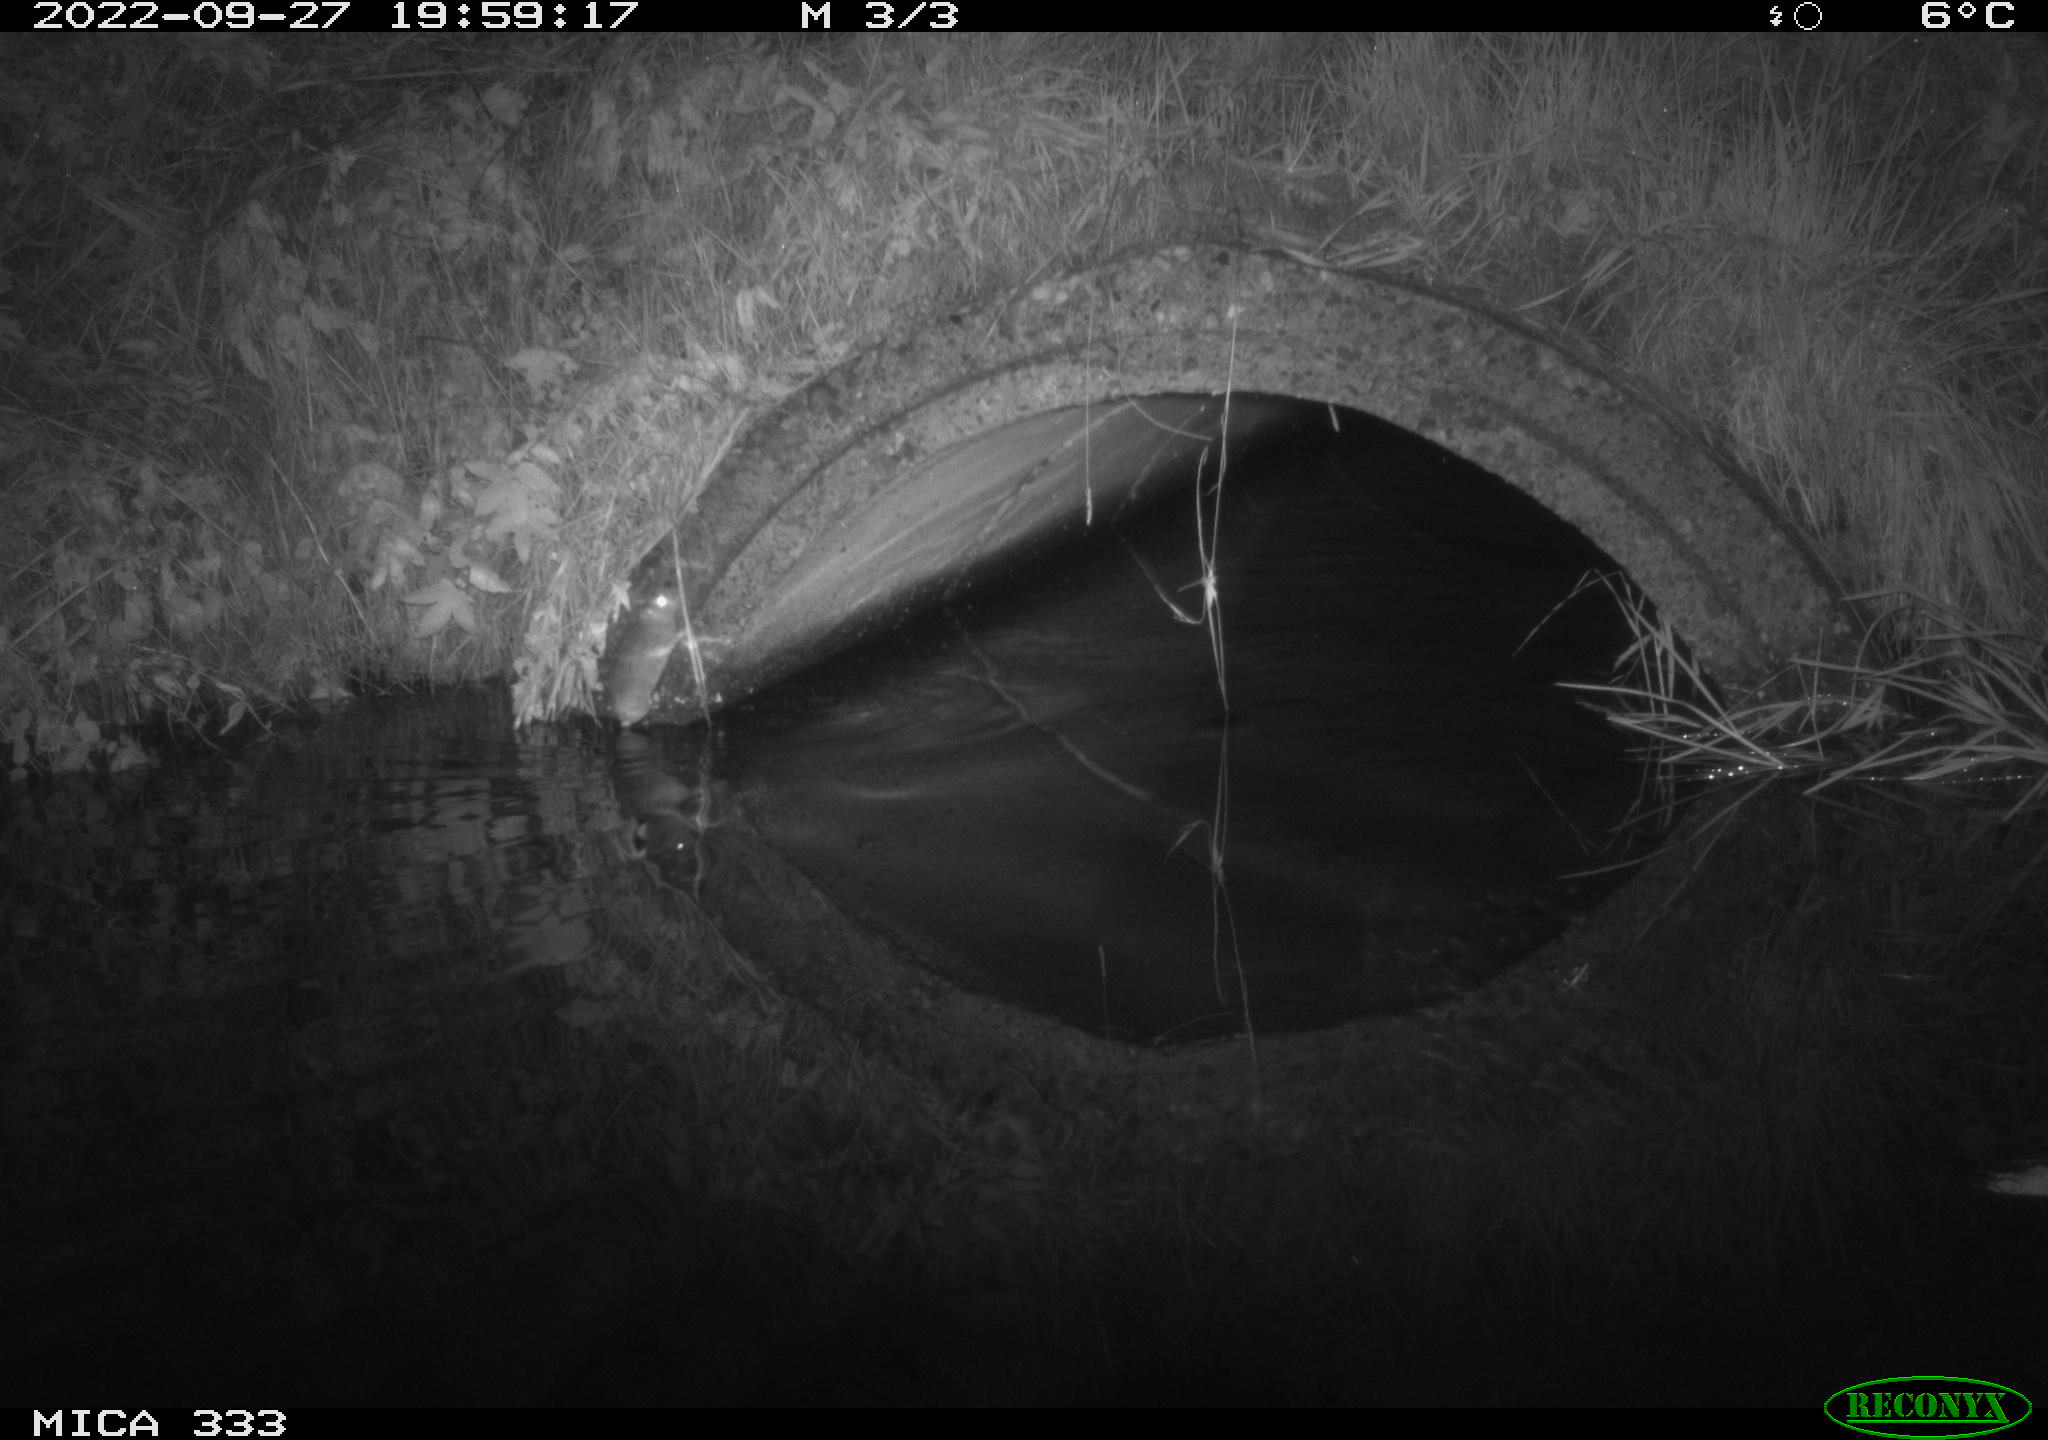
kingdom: Animalia
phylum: Chordata
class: Mammalia
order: Rodentia
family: Muridae
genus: Rattus
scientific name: Rattus norvegicus
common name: Brown rat
